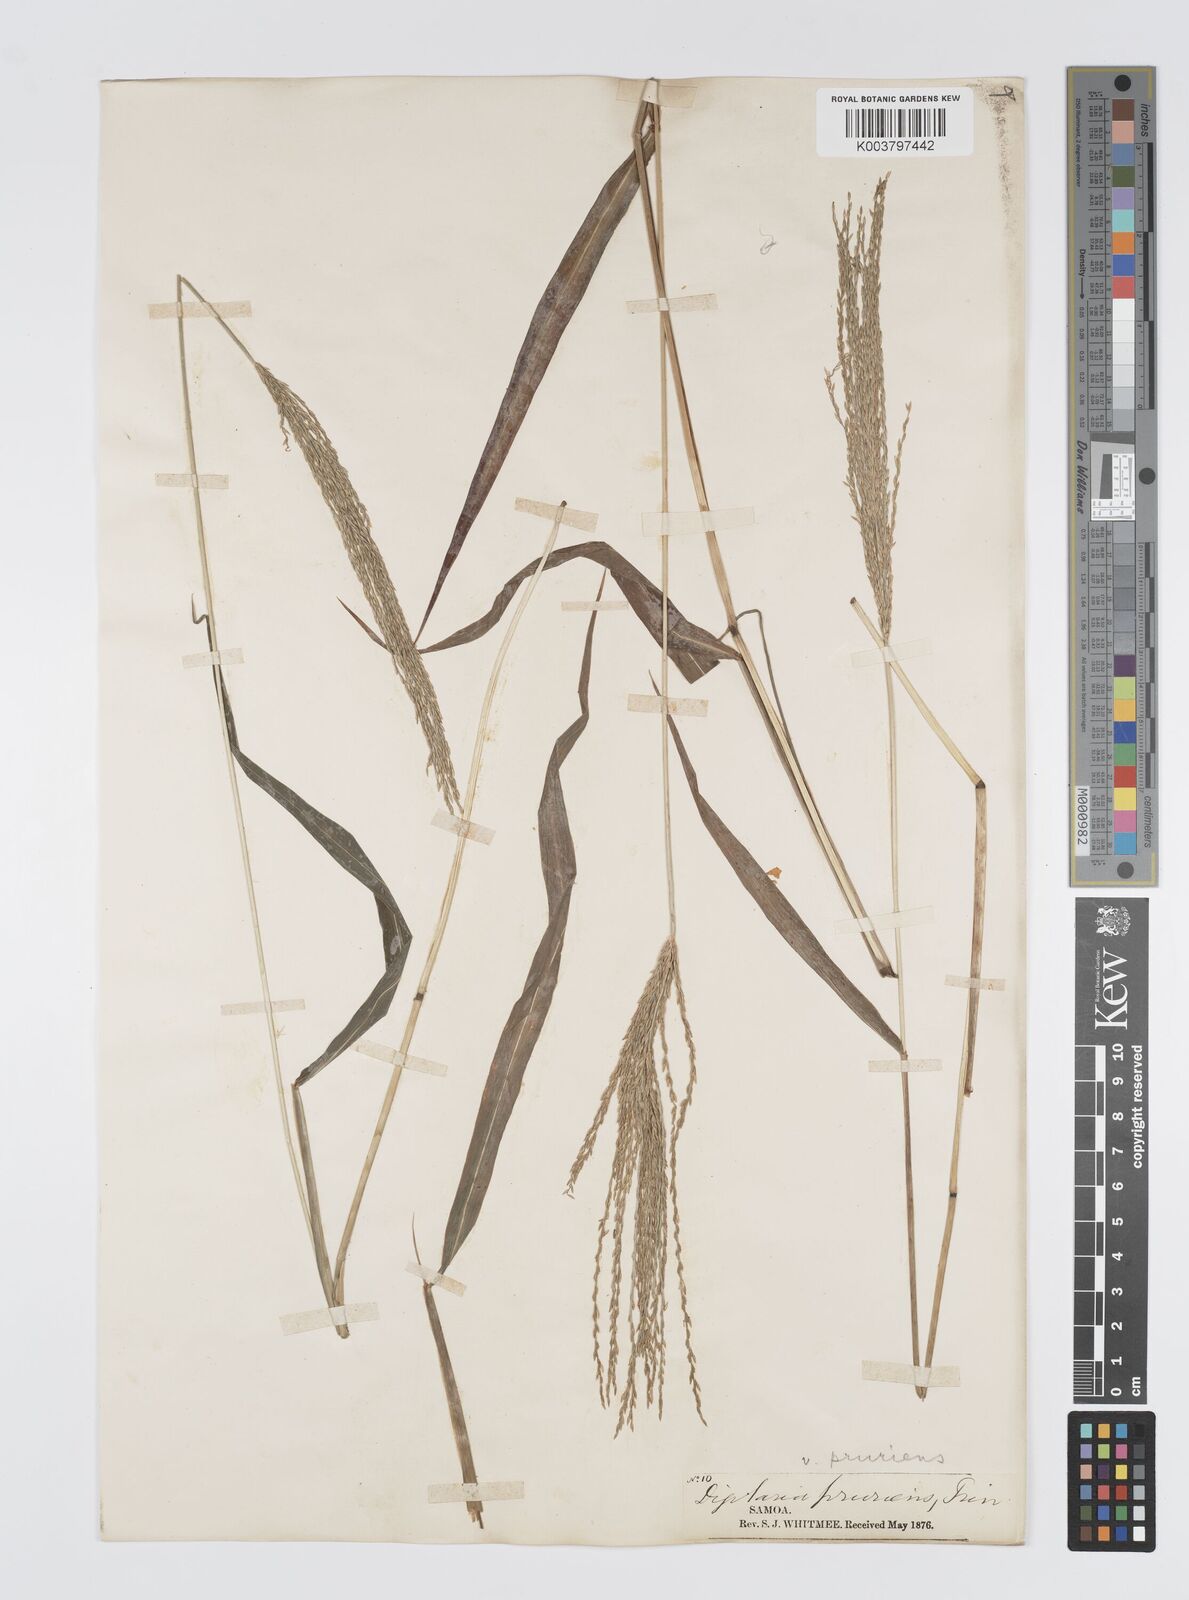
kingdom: Plantae
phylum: Tracheophyta
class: Liliopsida
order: Poales
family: Poaceae
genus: Digitaria
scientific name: Digitaria setigera
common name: East indian crabgrass
